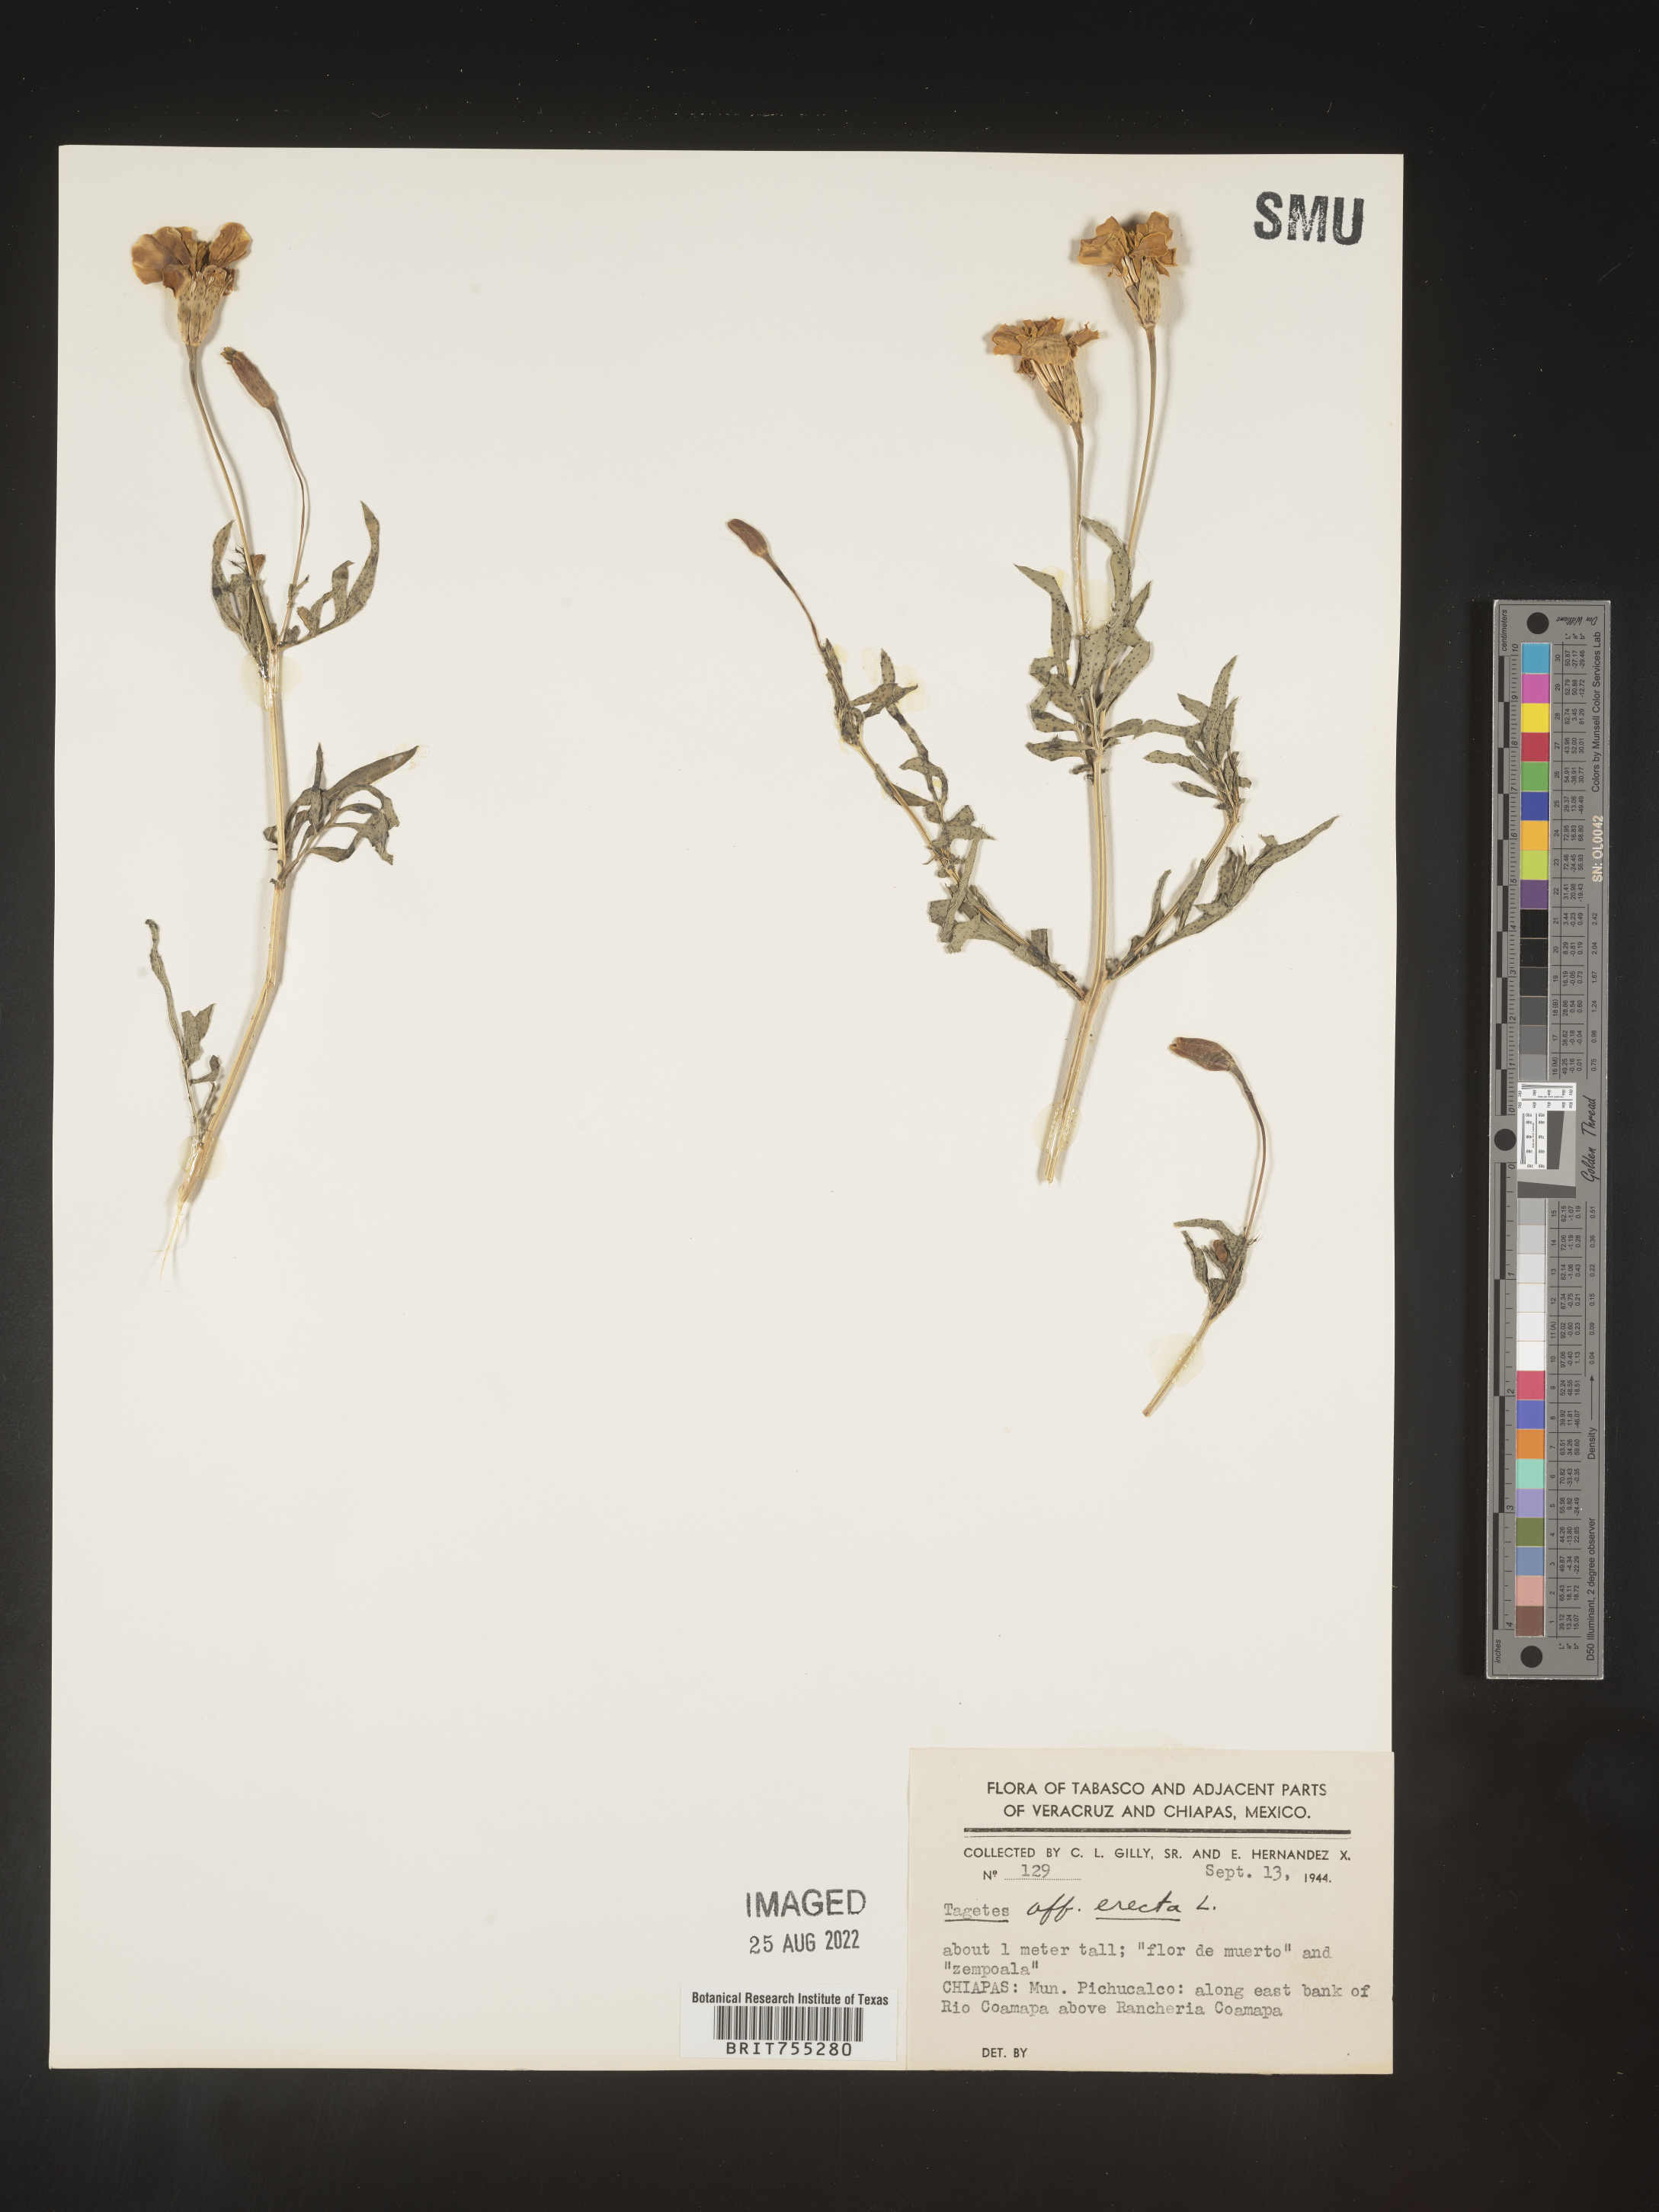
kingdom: Plantae
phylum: Tracheophyta
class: Magnoliopsida
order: Asterales
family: Asteraceae
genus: Tagetes
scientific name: Tagetes
